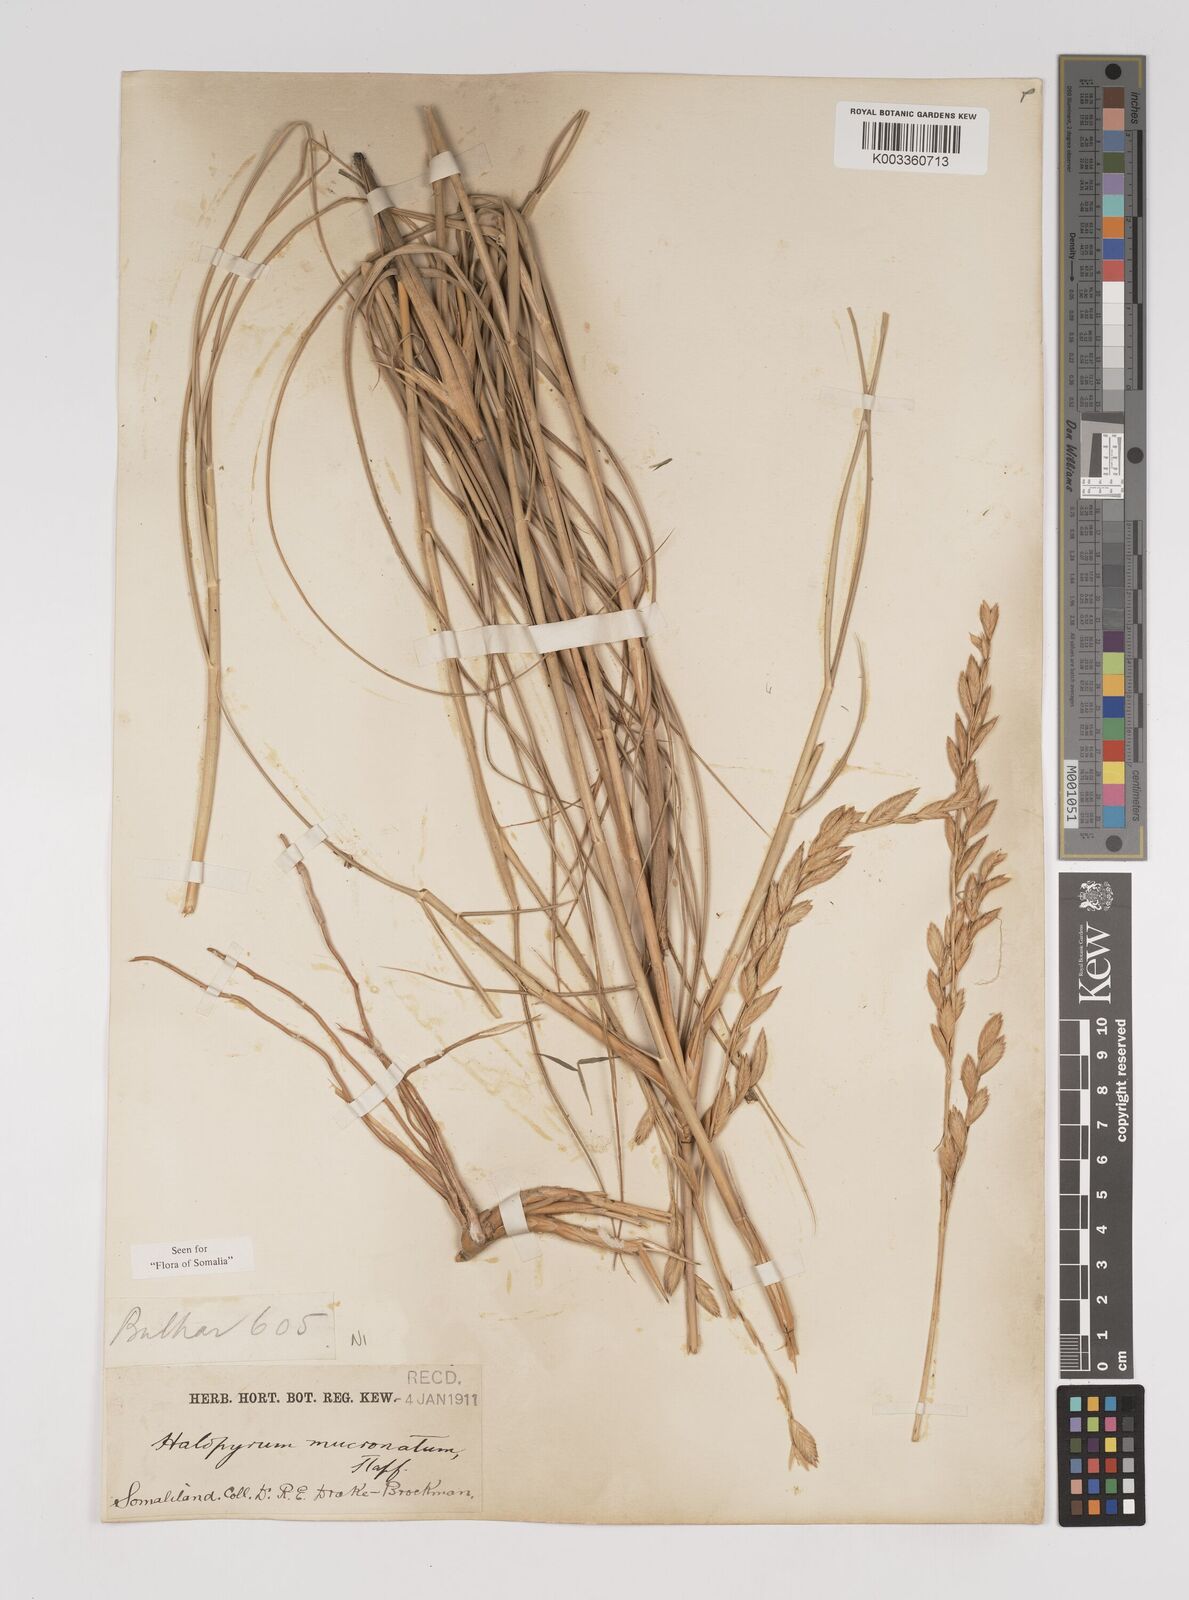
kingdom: Plantae
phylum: Tracheophyta
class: Liliopsida
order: Poales
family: Poaceae
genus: Halopyrum
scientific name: Halopyrum mucronatum
